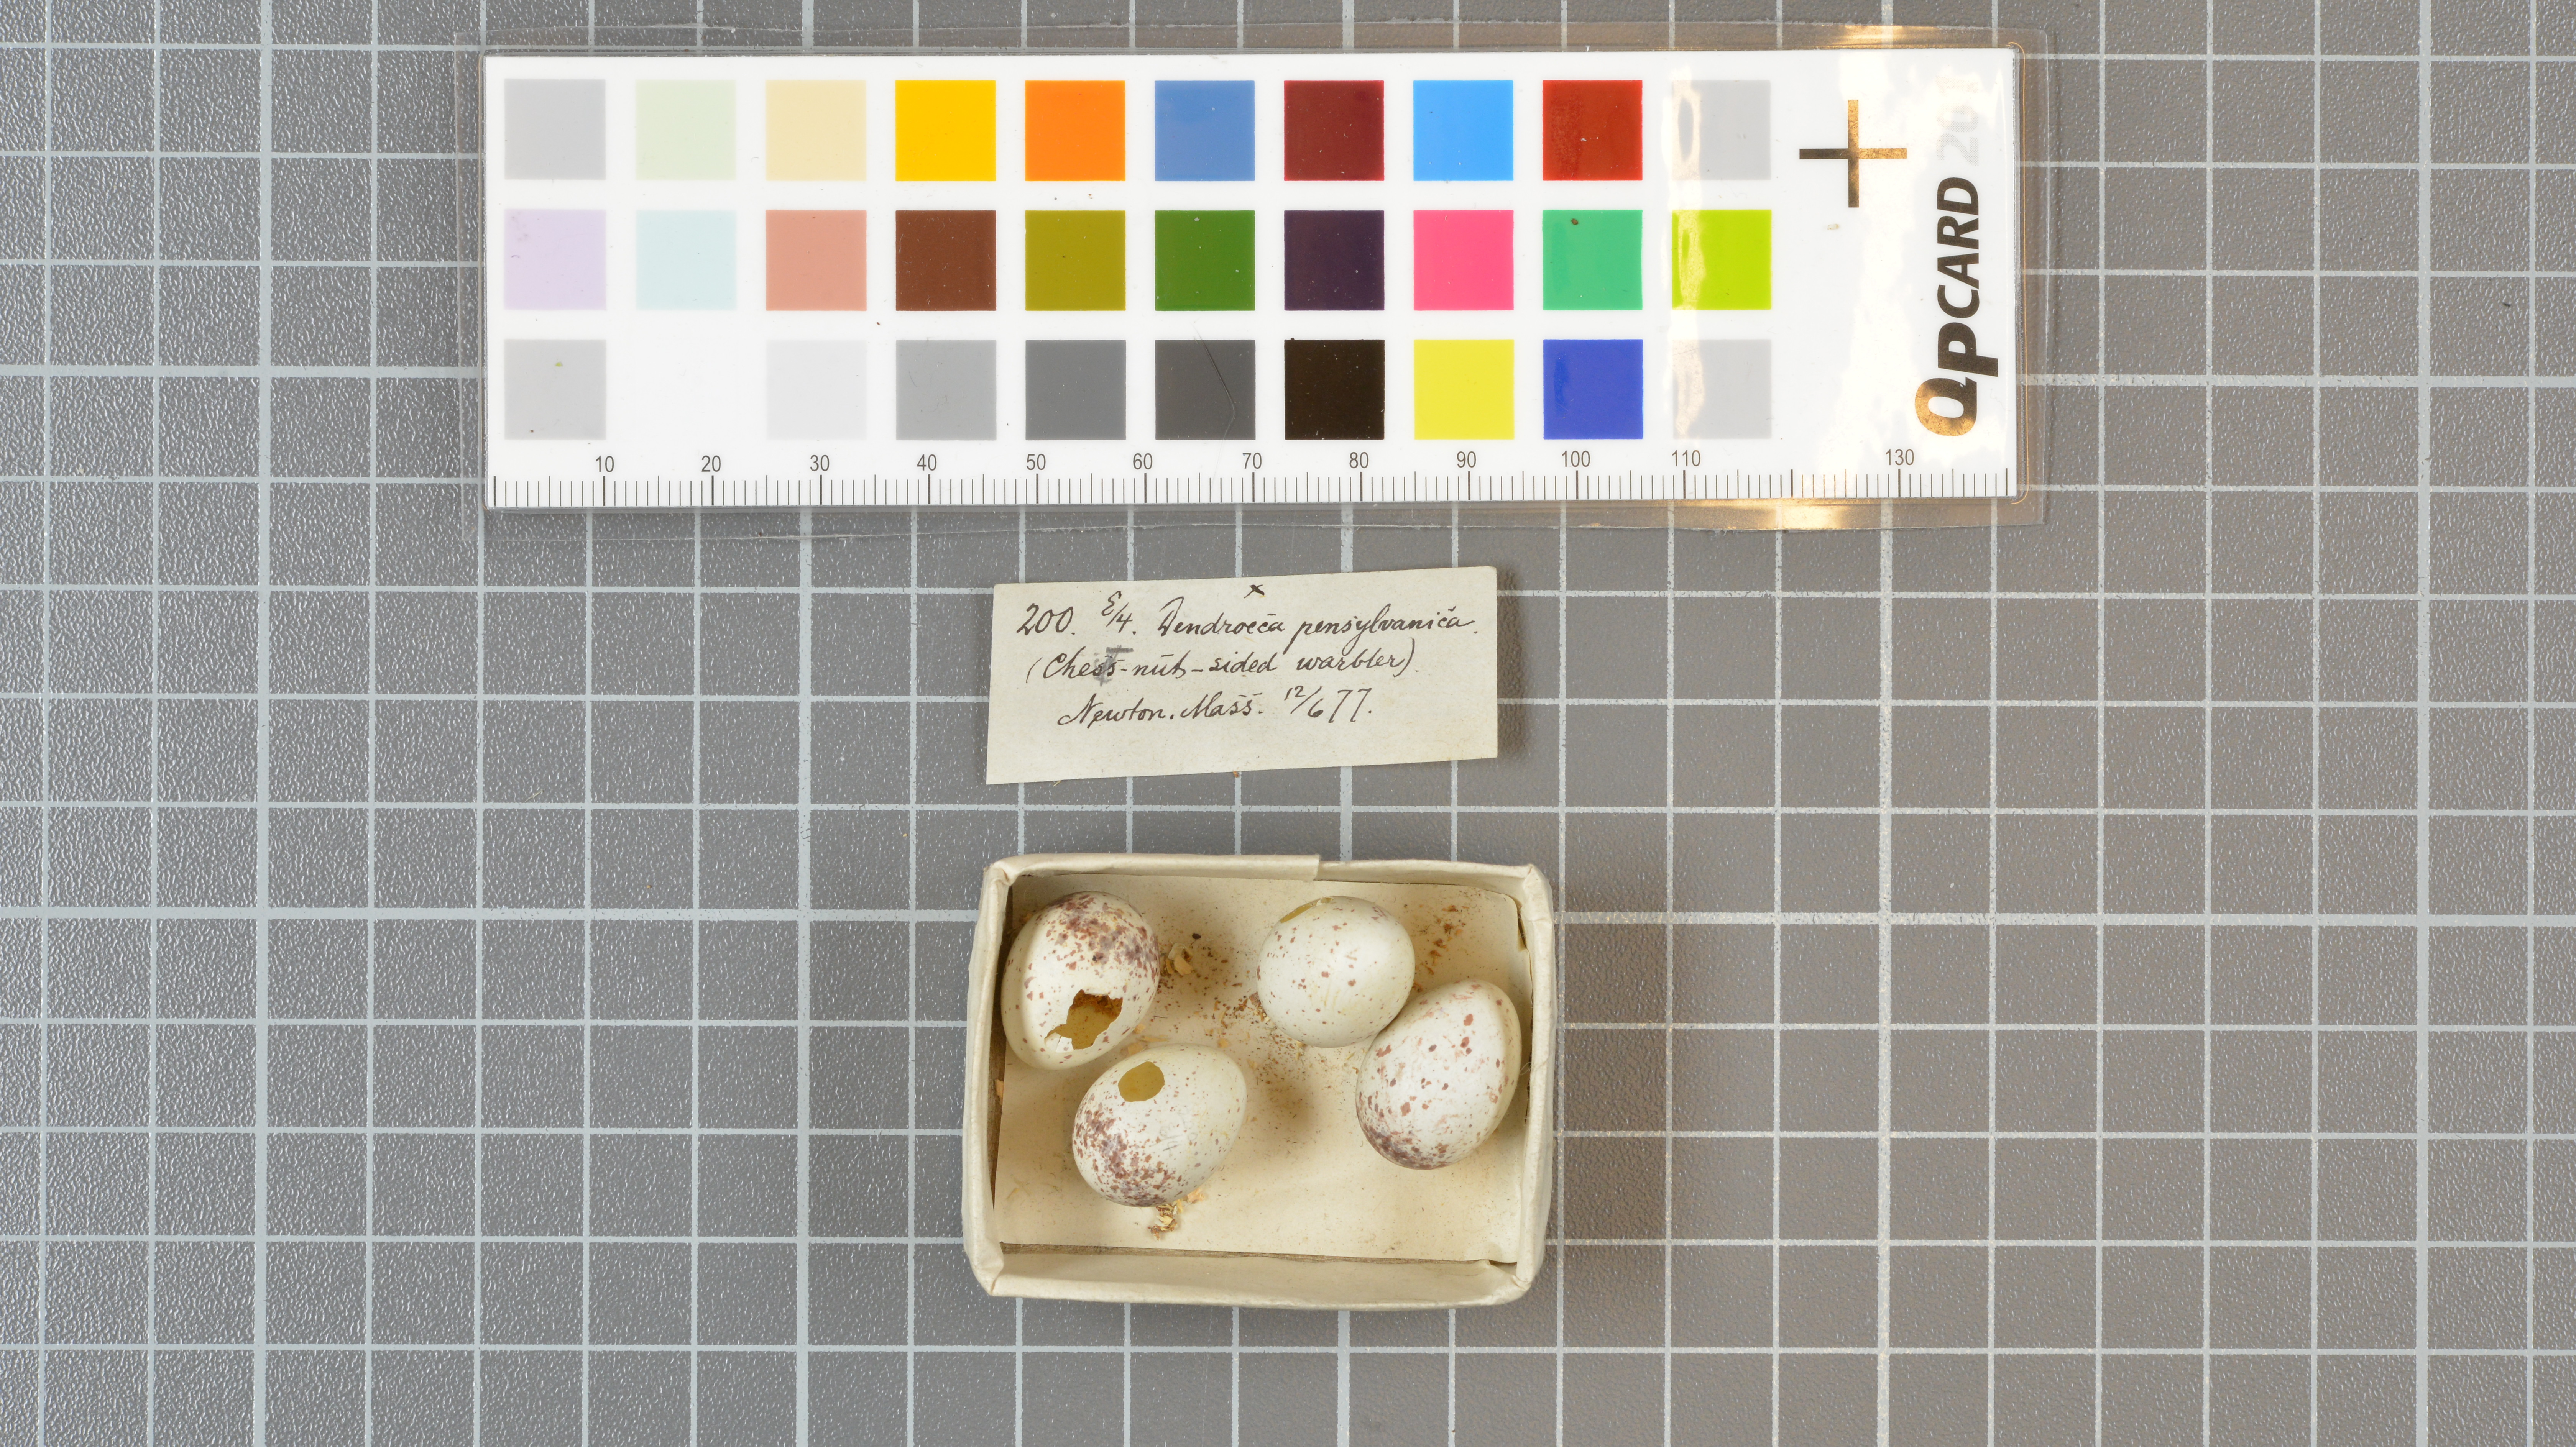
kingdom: Animalia
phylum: Chordata
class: Aves
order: Passeriformes
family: Parulidae
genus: Setophaga
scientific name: Setophaga pensylvanica
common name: Chestnut-sided warbler
